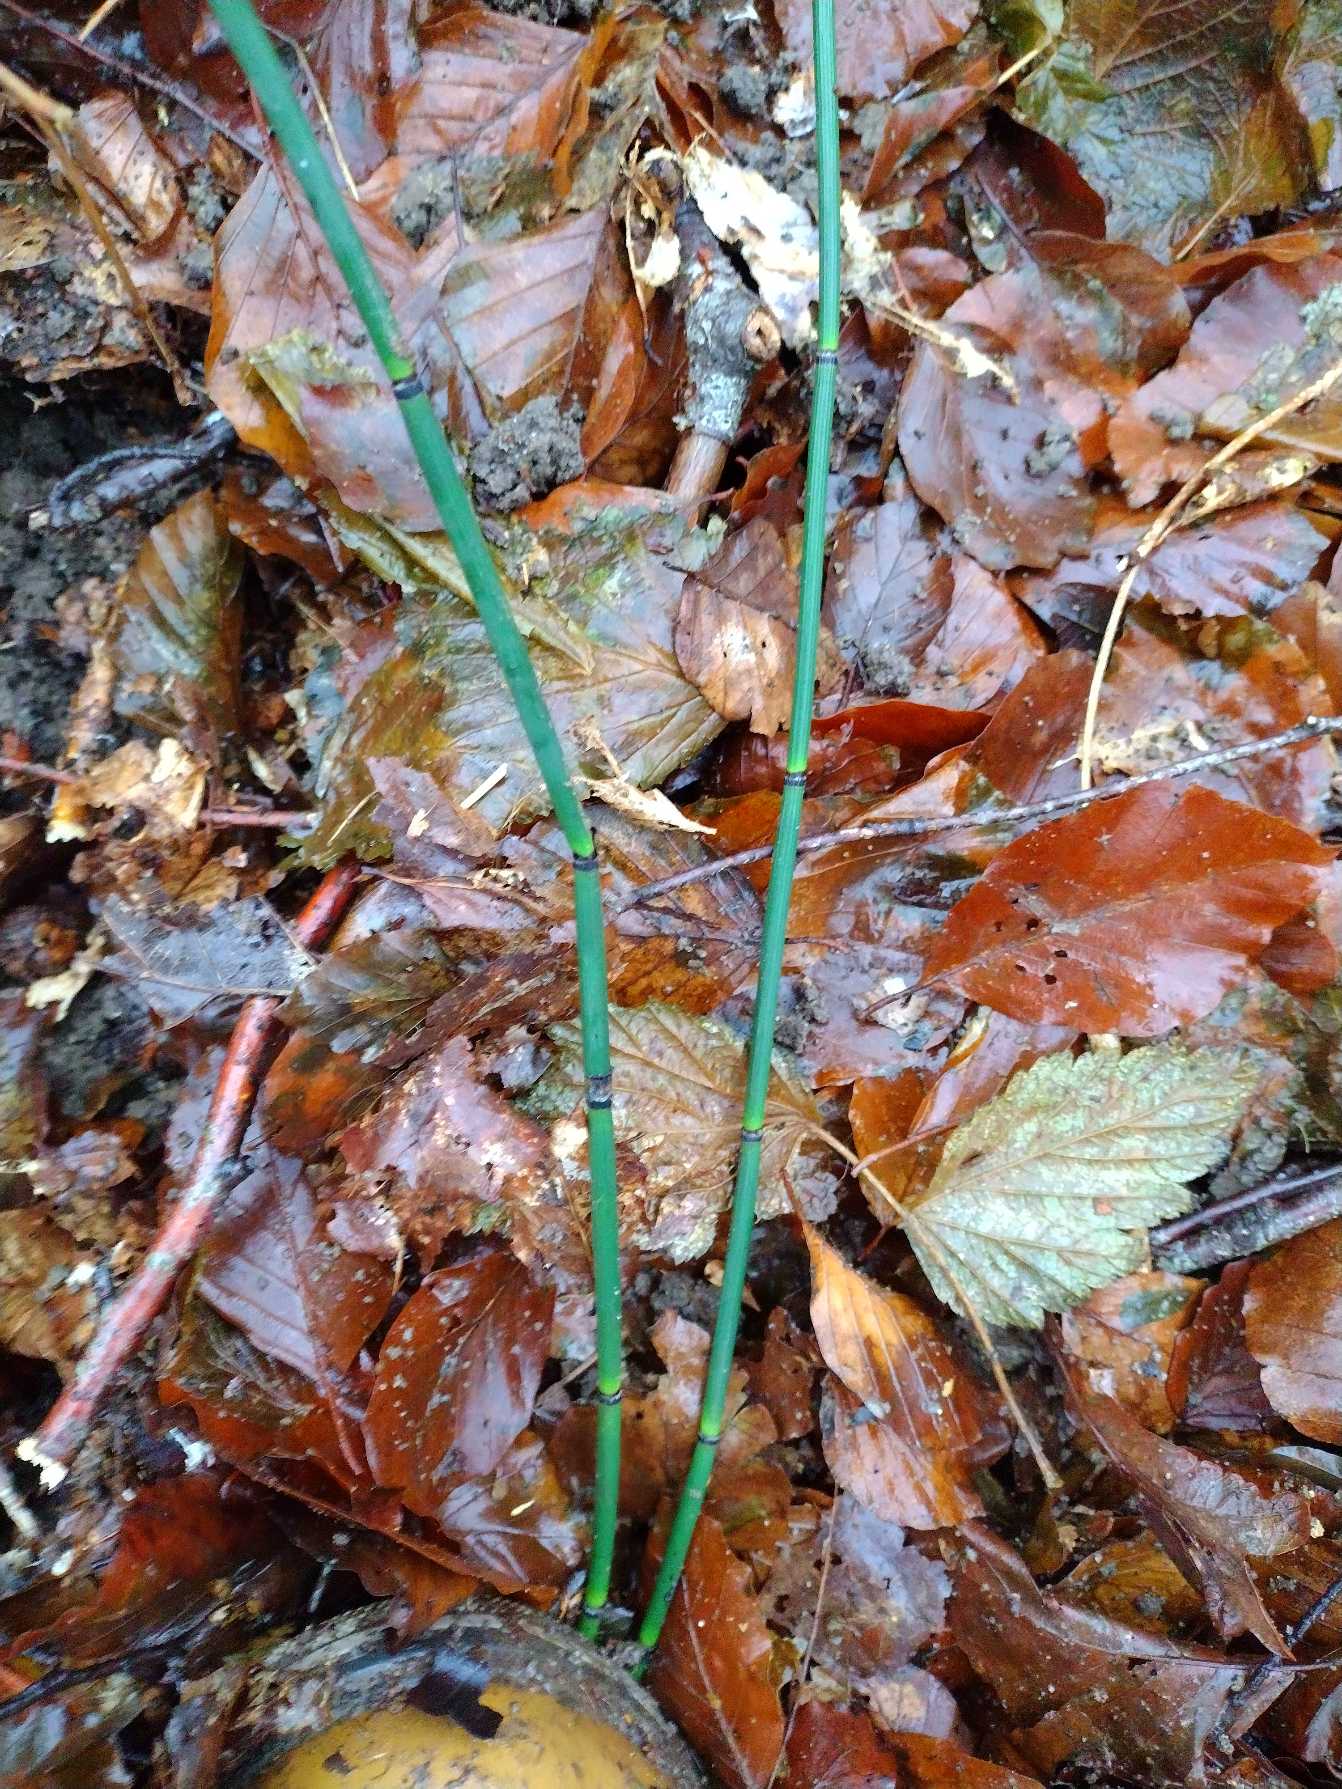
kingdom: Plantae
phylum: Tracheophyta
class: Polypodiopsida
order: Equisetales
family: Equisetaceae
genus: Equisetum
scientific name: Equisetum hyemale
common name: Skavgræs
